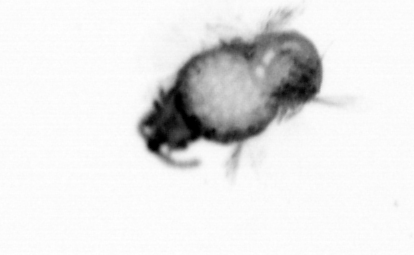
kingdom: Animalia
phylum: Annelida
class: Polychaeta
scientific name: Polychaeta
